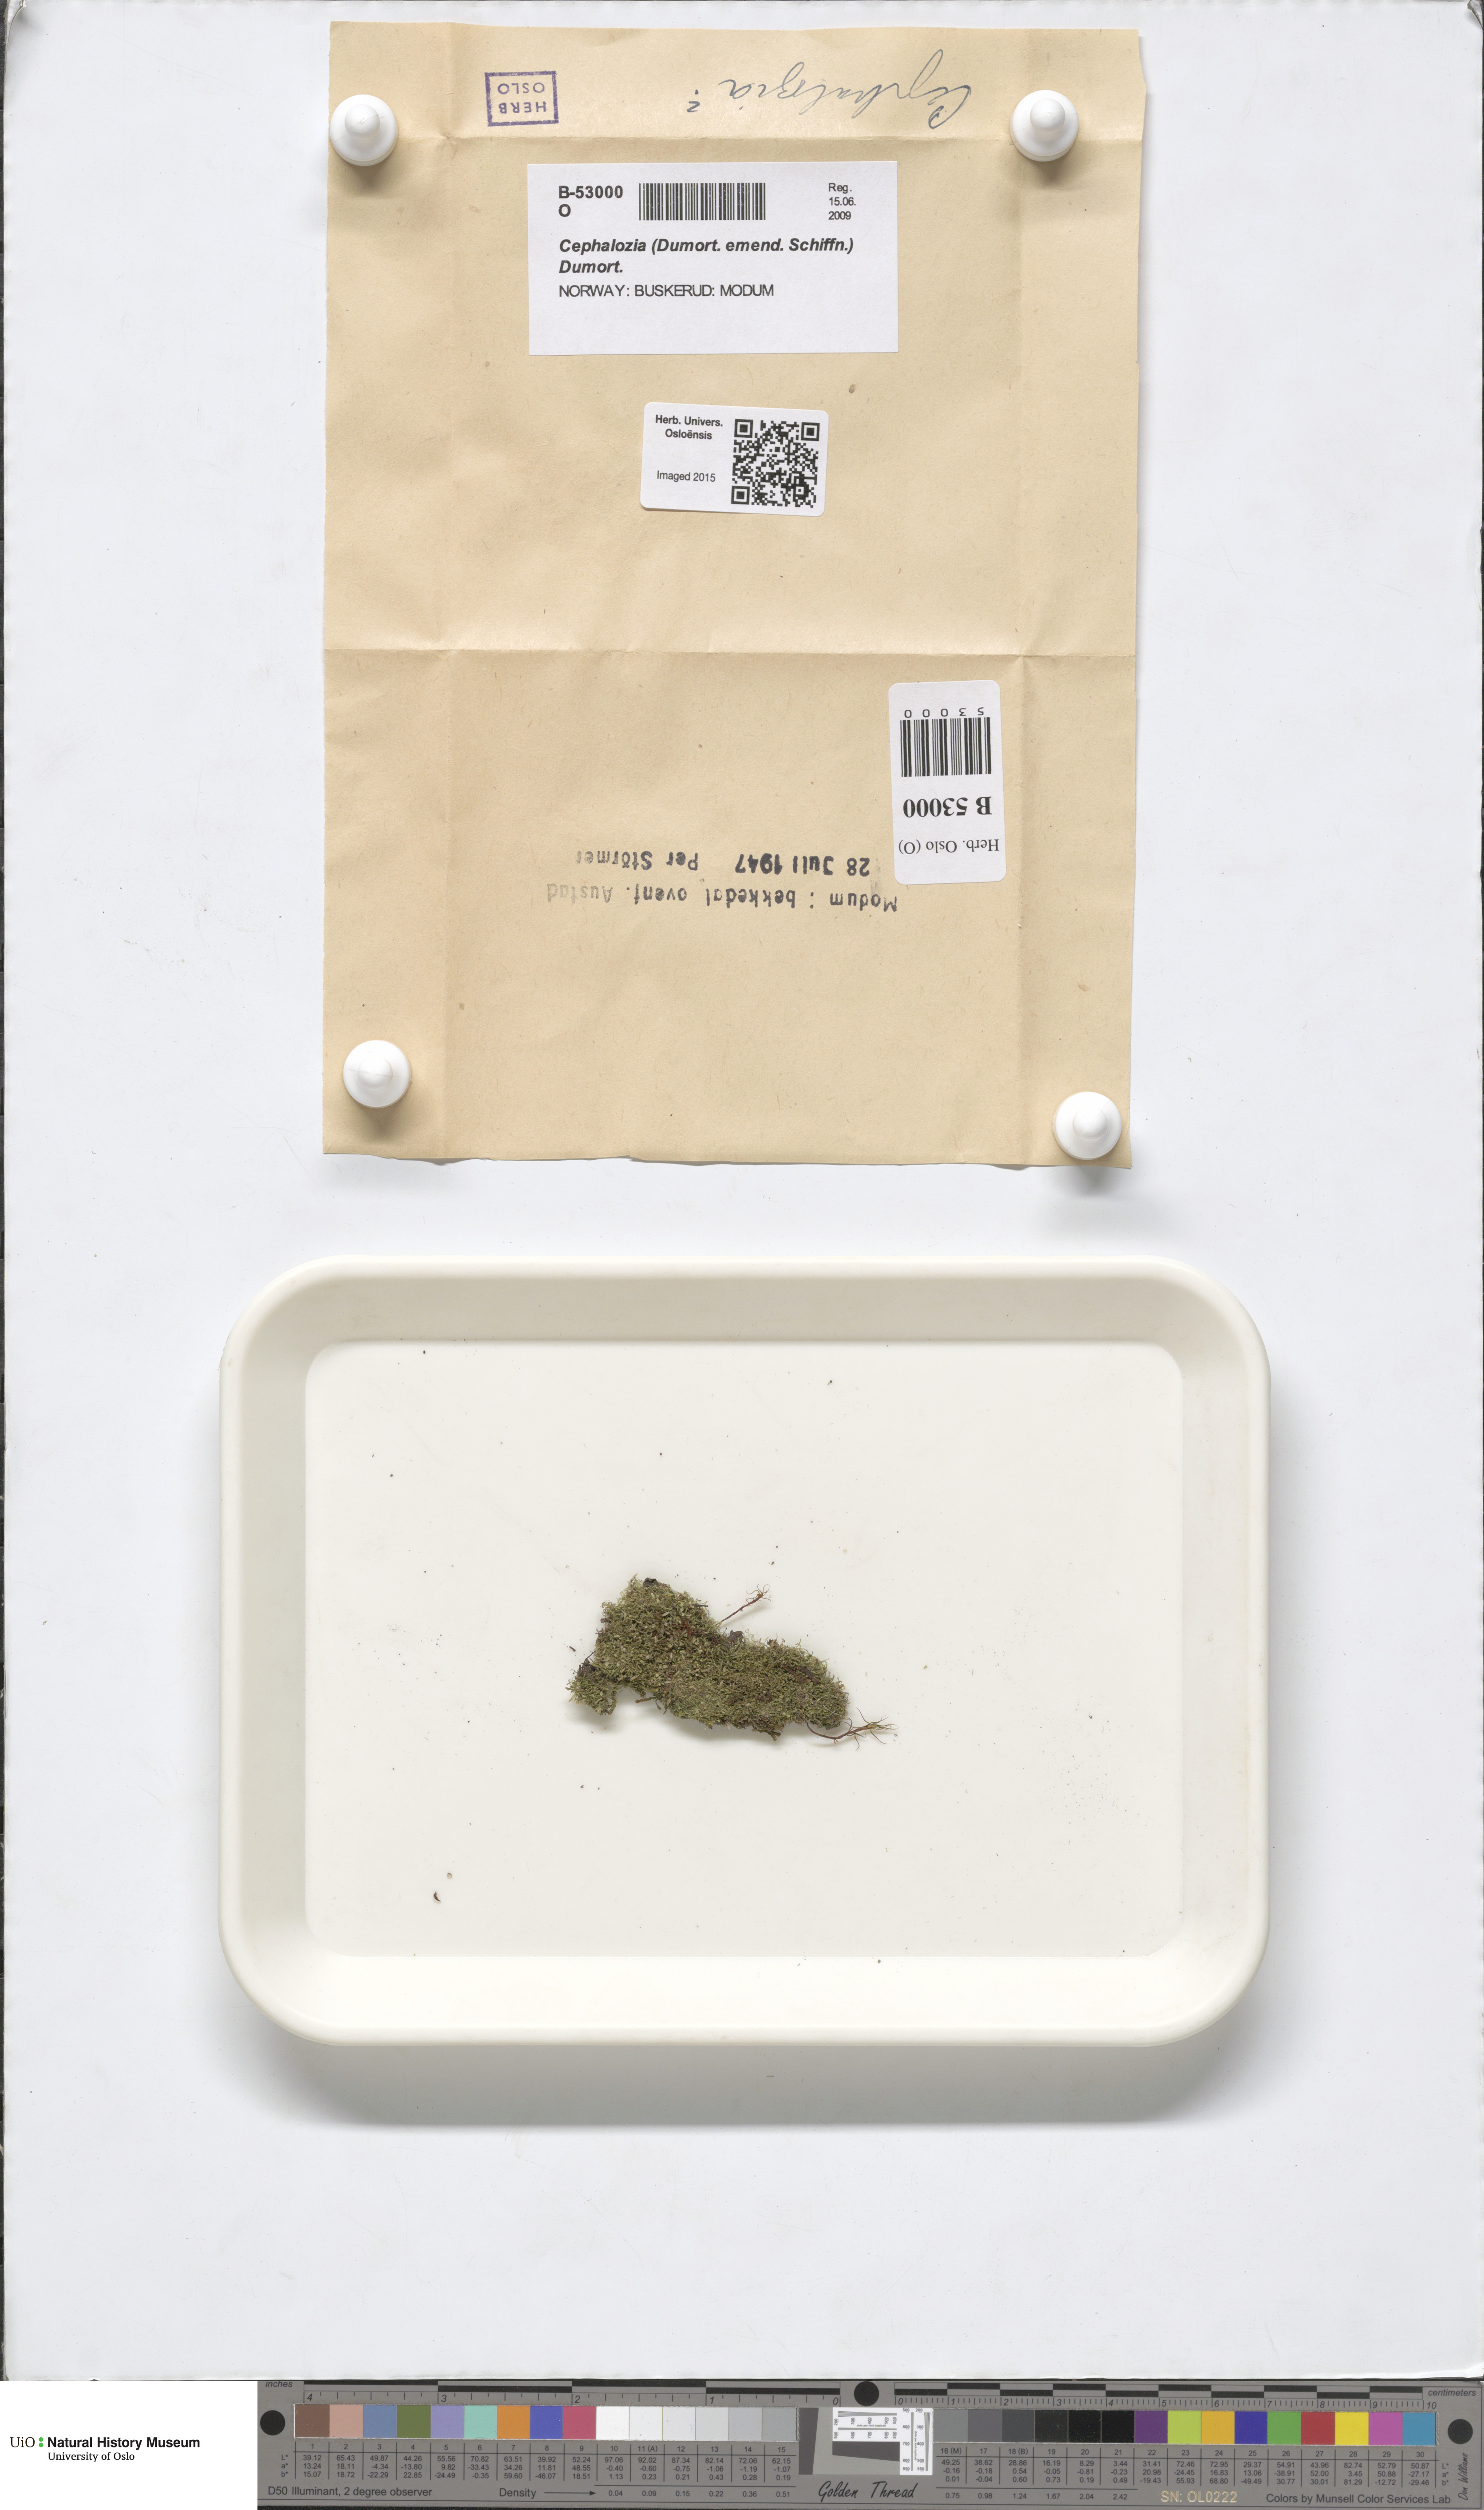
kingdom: Plantae
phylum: Marchantiophyta
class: Jungermanniopsida
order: Jungermanniales
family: Cephaloziaceae
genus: Cephalozia
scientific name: Cephalozia
